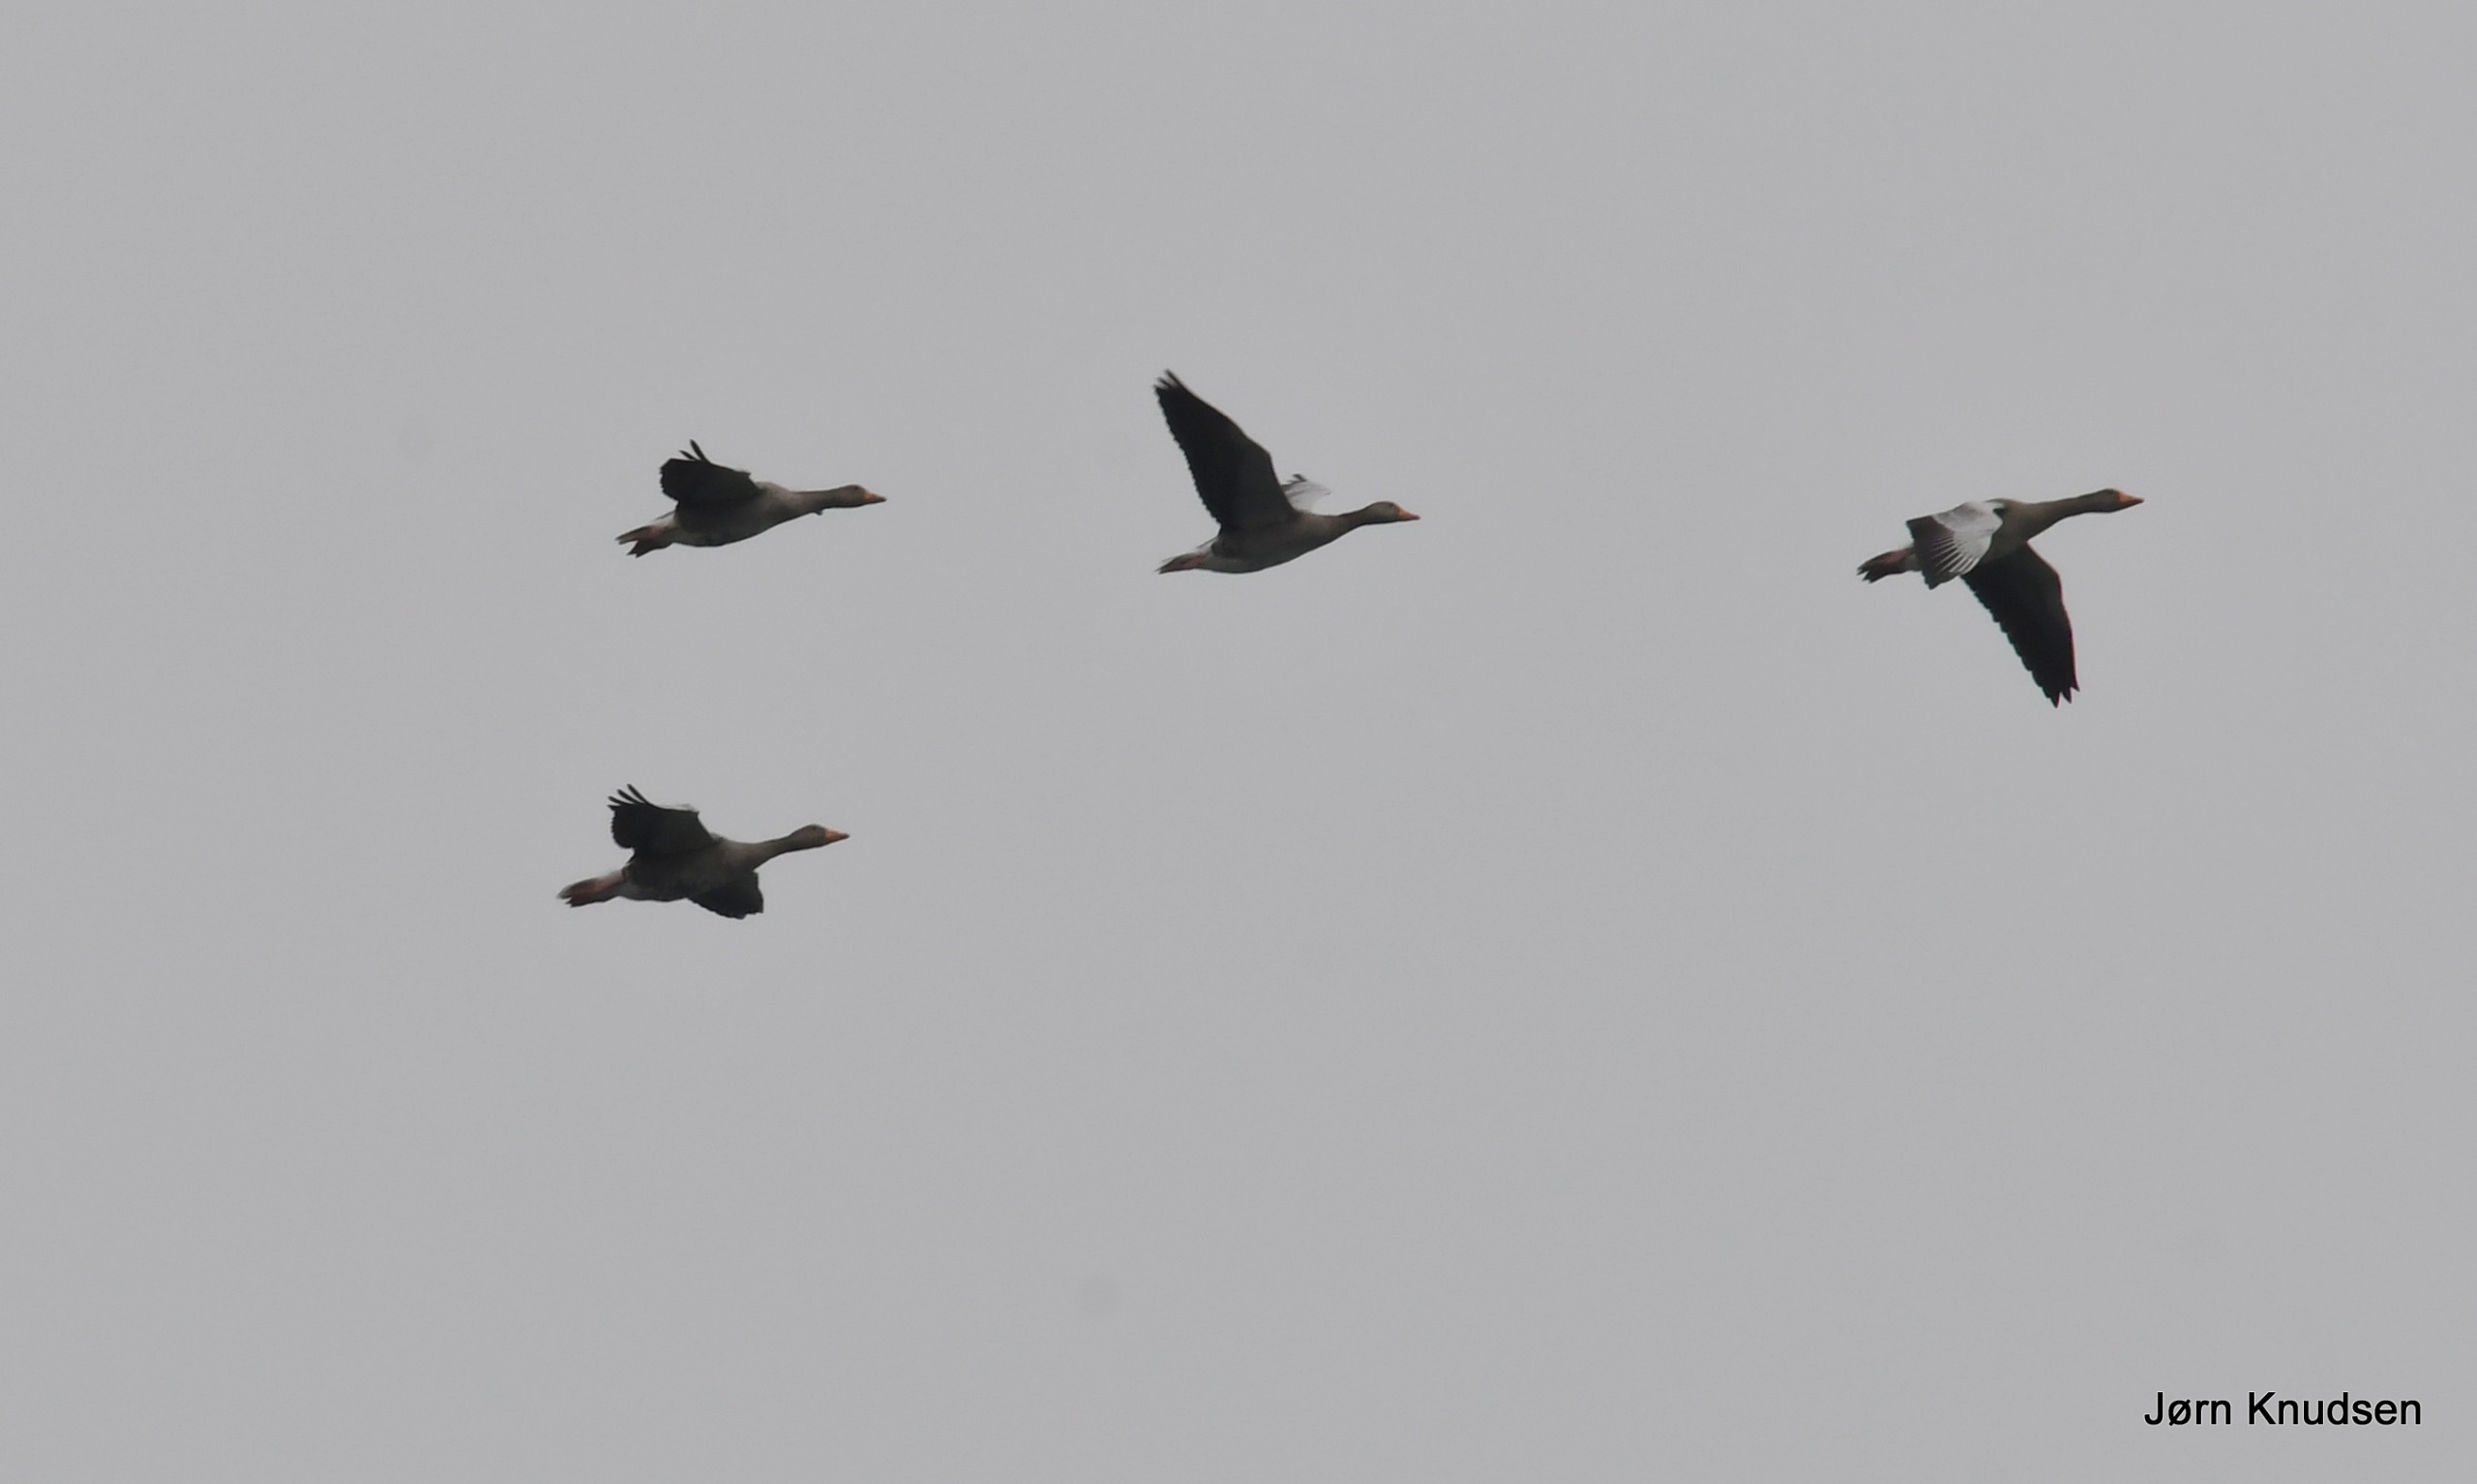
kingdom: Animalia
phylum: Chordata
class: Aves
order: Anseriformes
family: Anatidae
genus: Anser
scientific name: Anser anser
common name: Grågås
